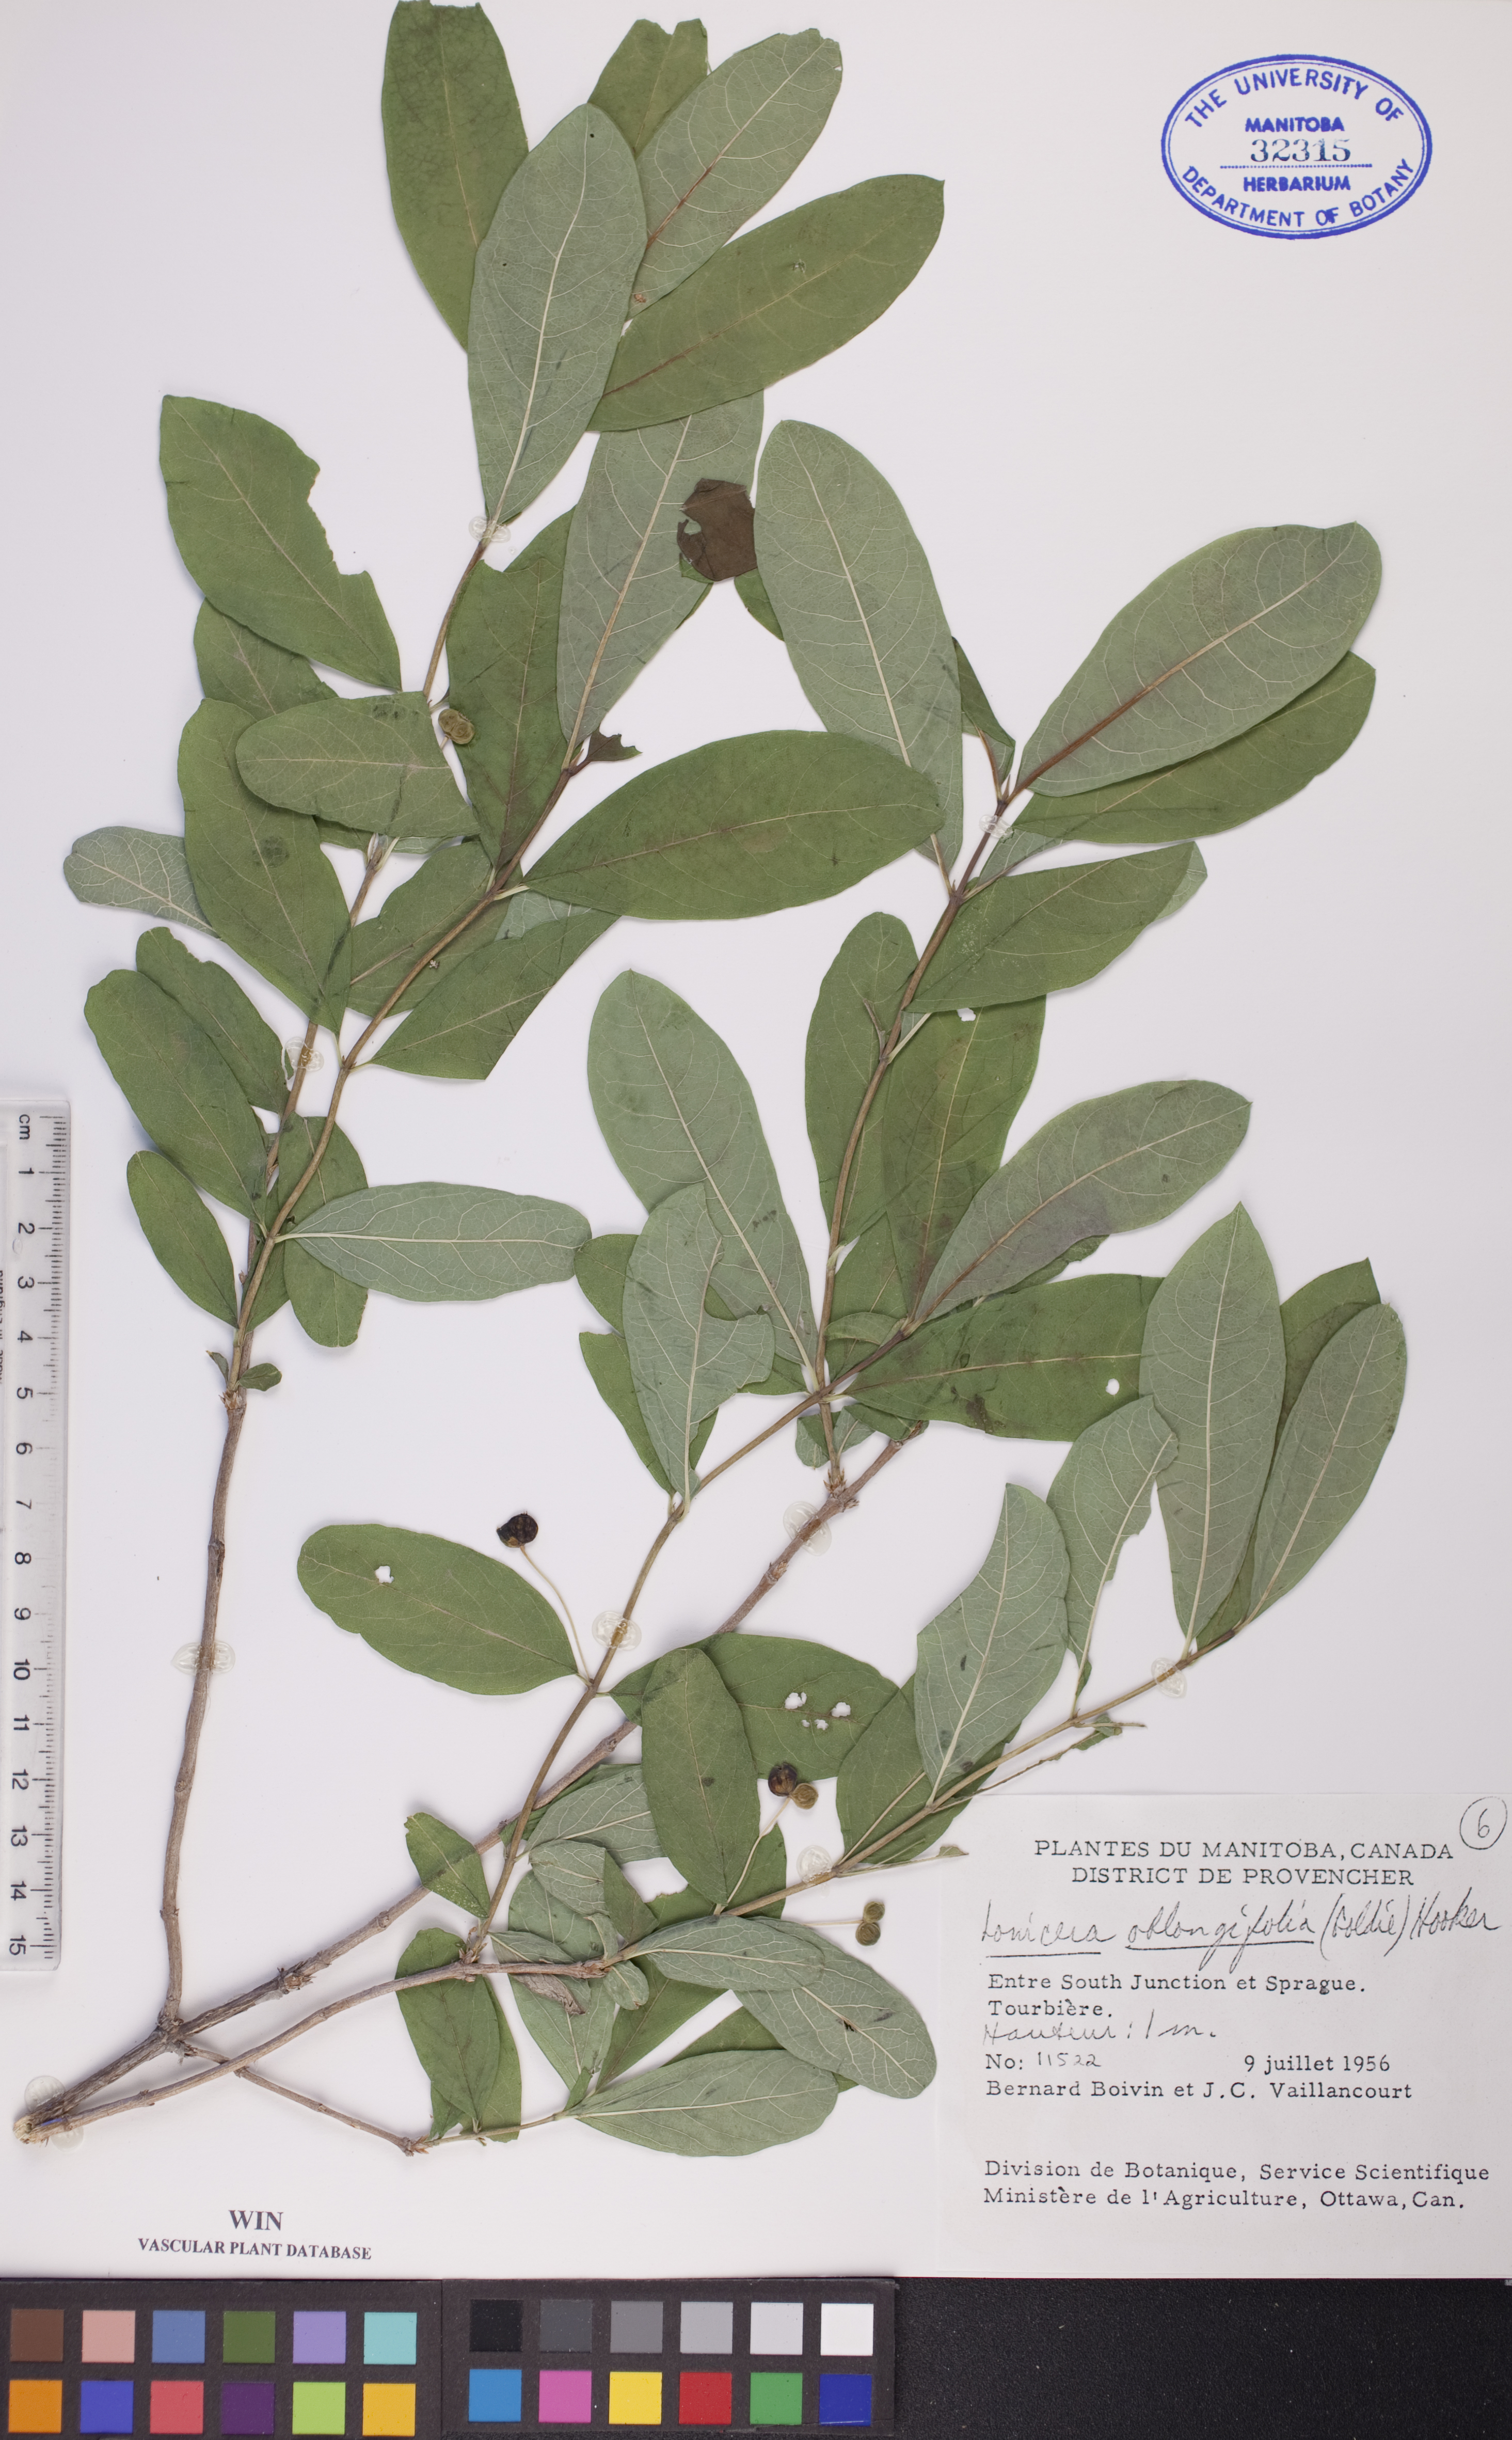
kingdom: Plantae
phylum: Tracheophyta
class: Magnoliopsida
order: Dipsacales
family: Caprifoliaceae
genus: Lonicera
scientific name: Lonicera oblongifolia
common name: Swamp fly honeysuckle
